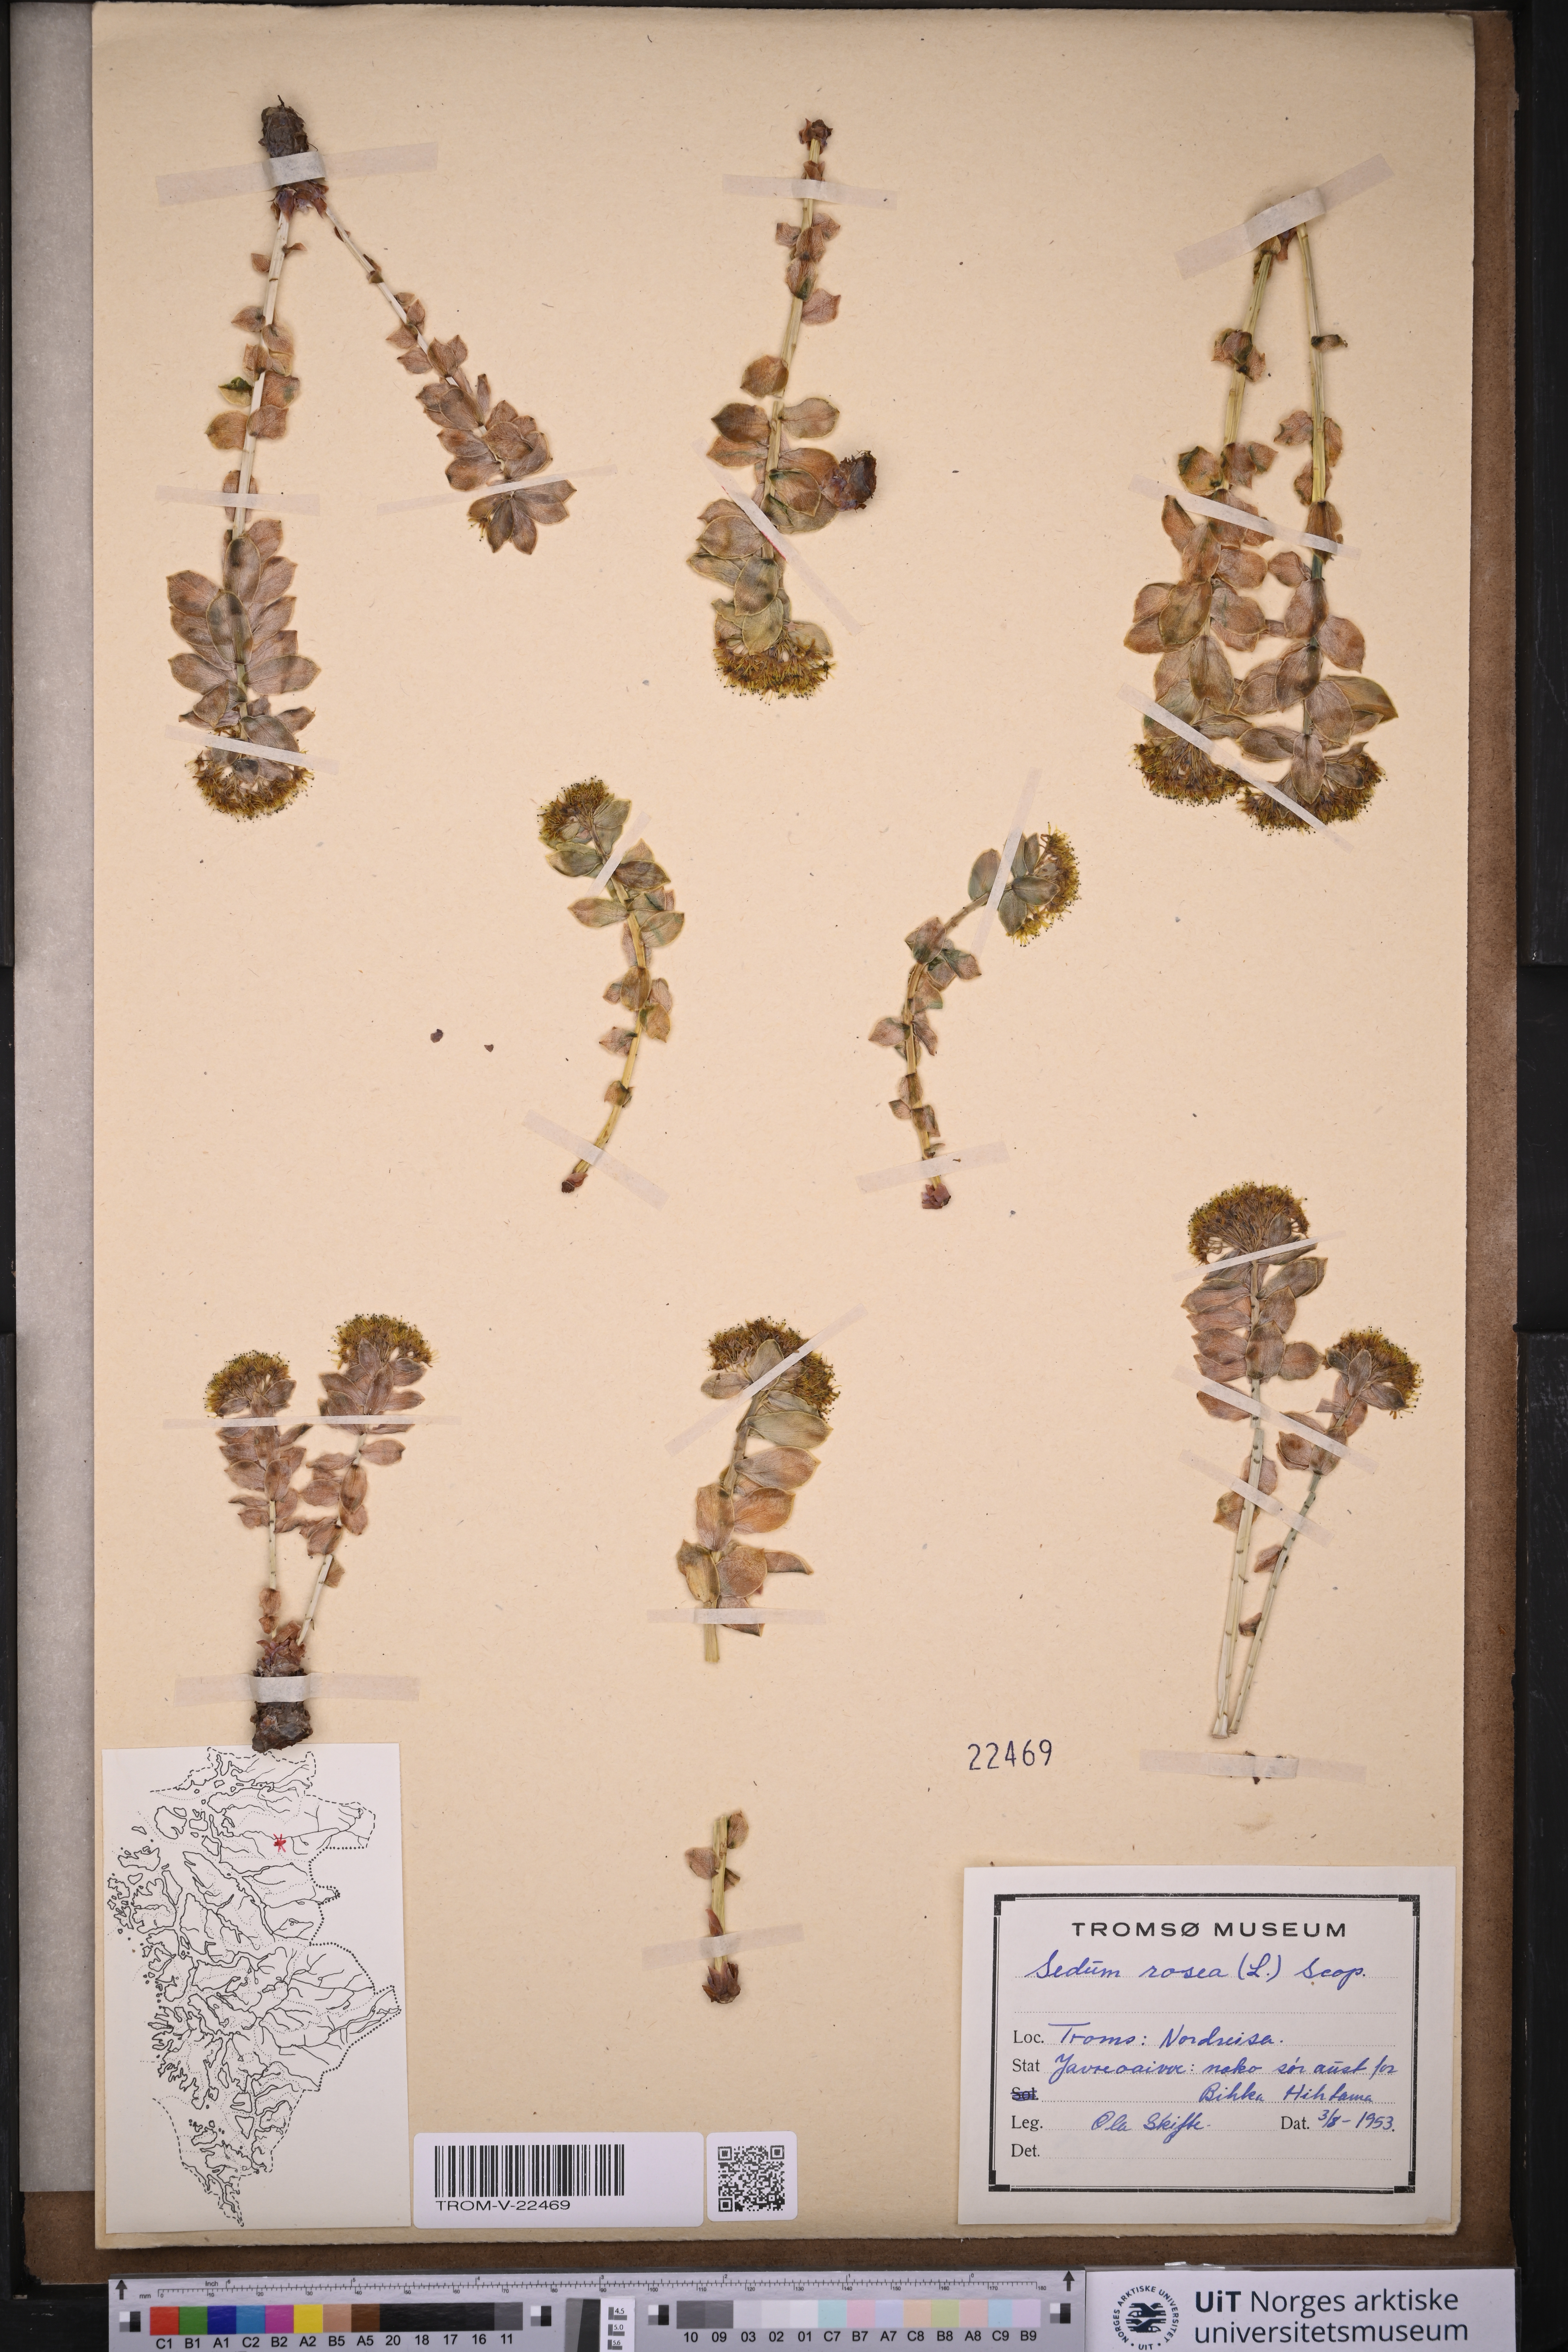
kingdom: Plantae
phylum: Tracheophyta
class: Magnoliopsida
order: Saxifragales
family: Crassulaceae
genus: Rhodiola
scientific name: Rhodiola rosea
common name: Roseroot
